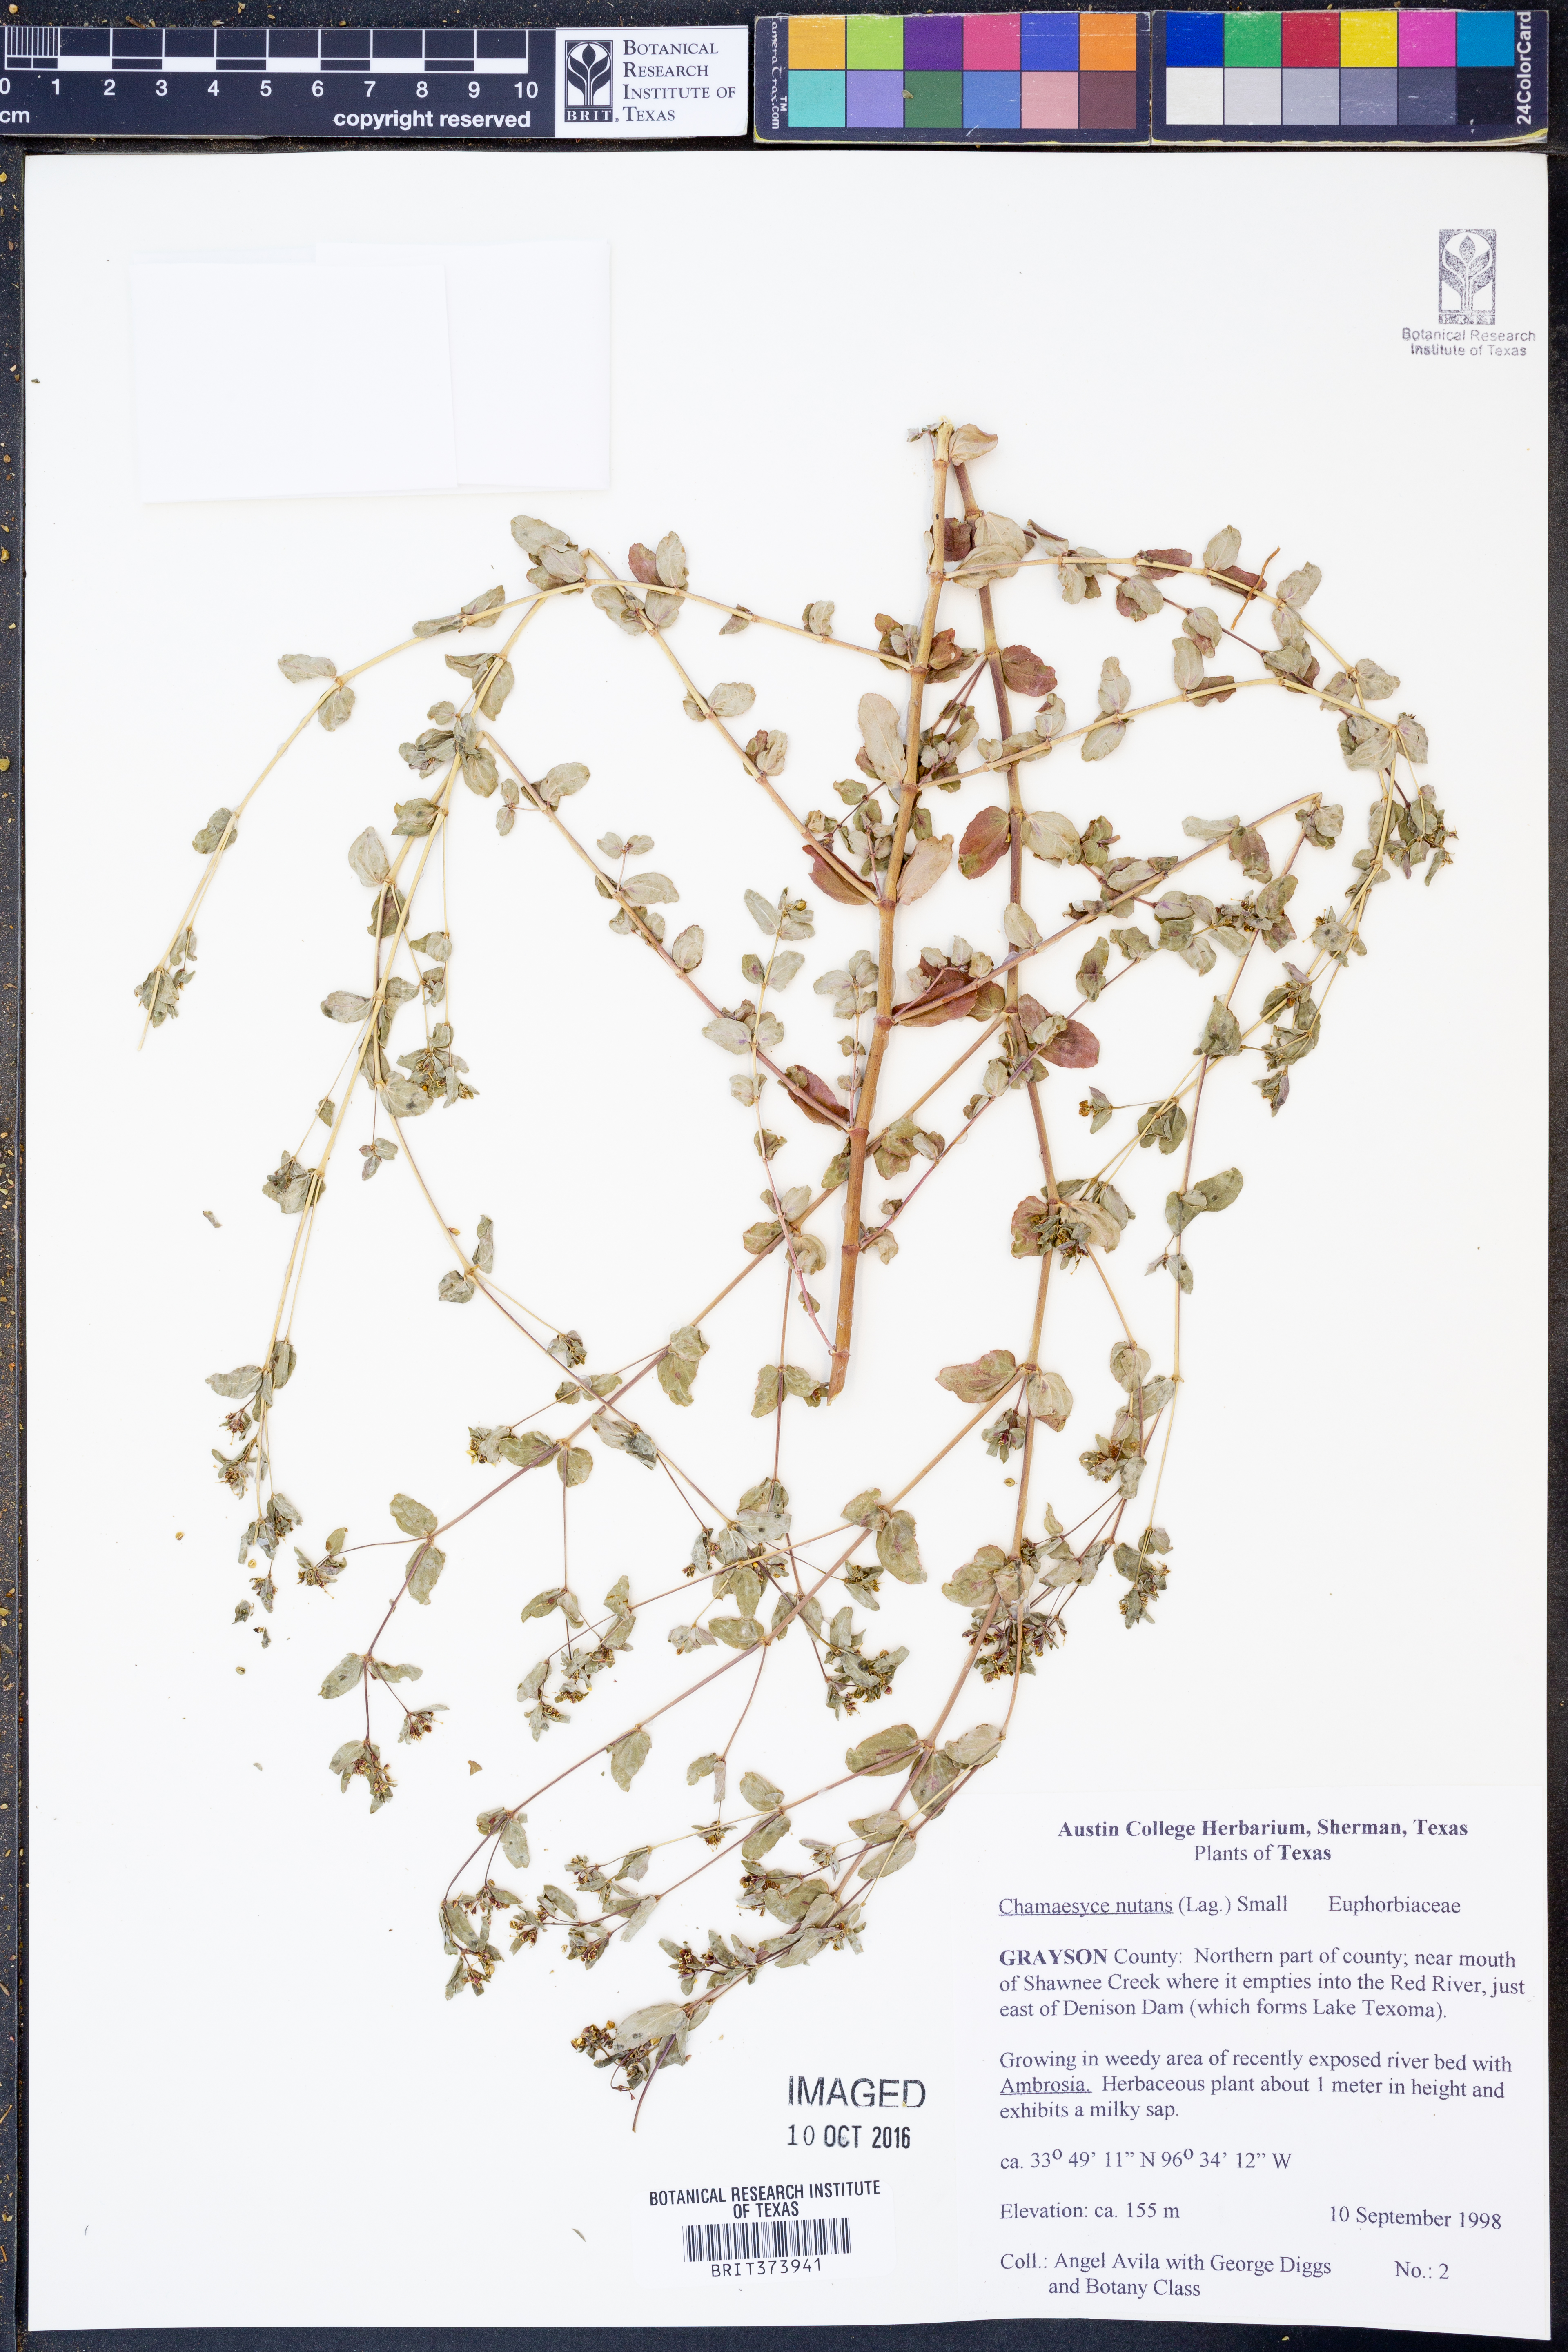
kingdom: Plantae
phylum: Tracheophyta
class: Magnoliopsida
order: Malpighiales
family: Euphorbiaceae
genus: Euphorbia
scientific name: Euphorbia nutans
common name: Eyebane
